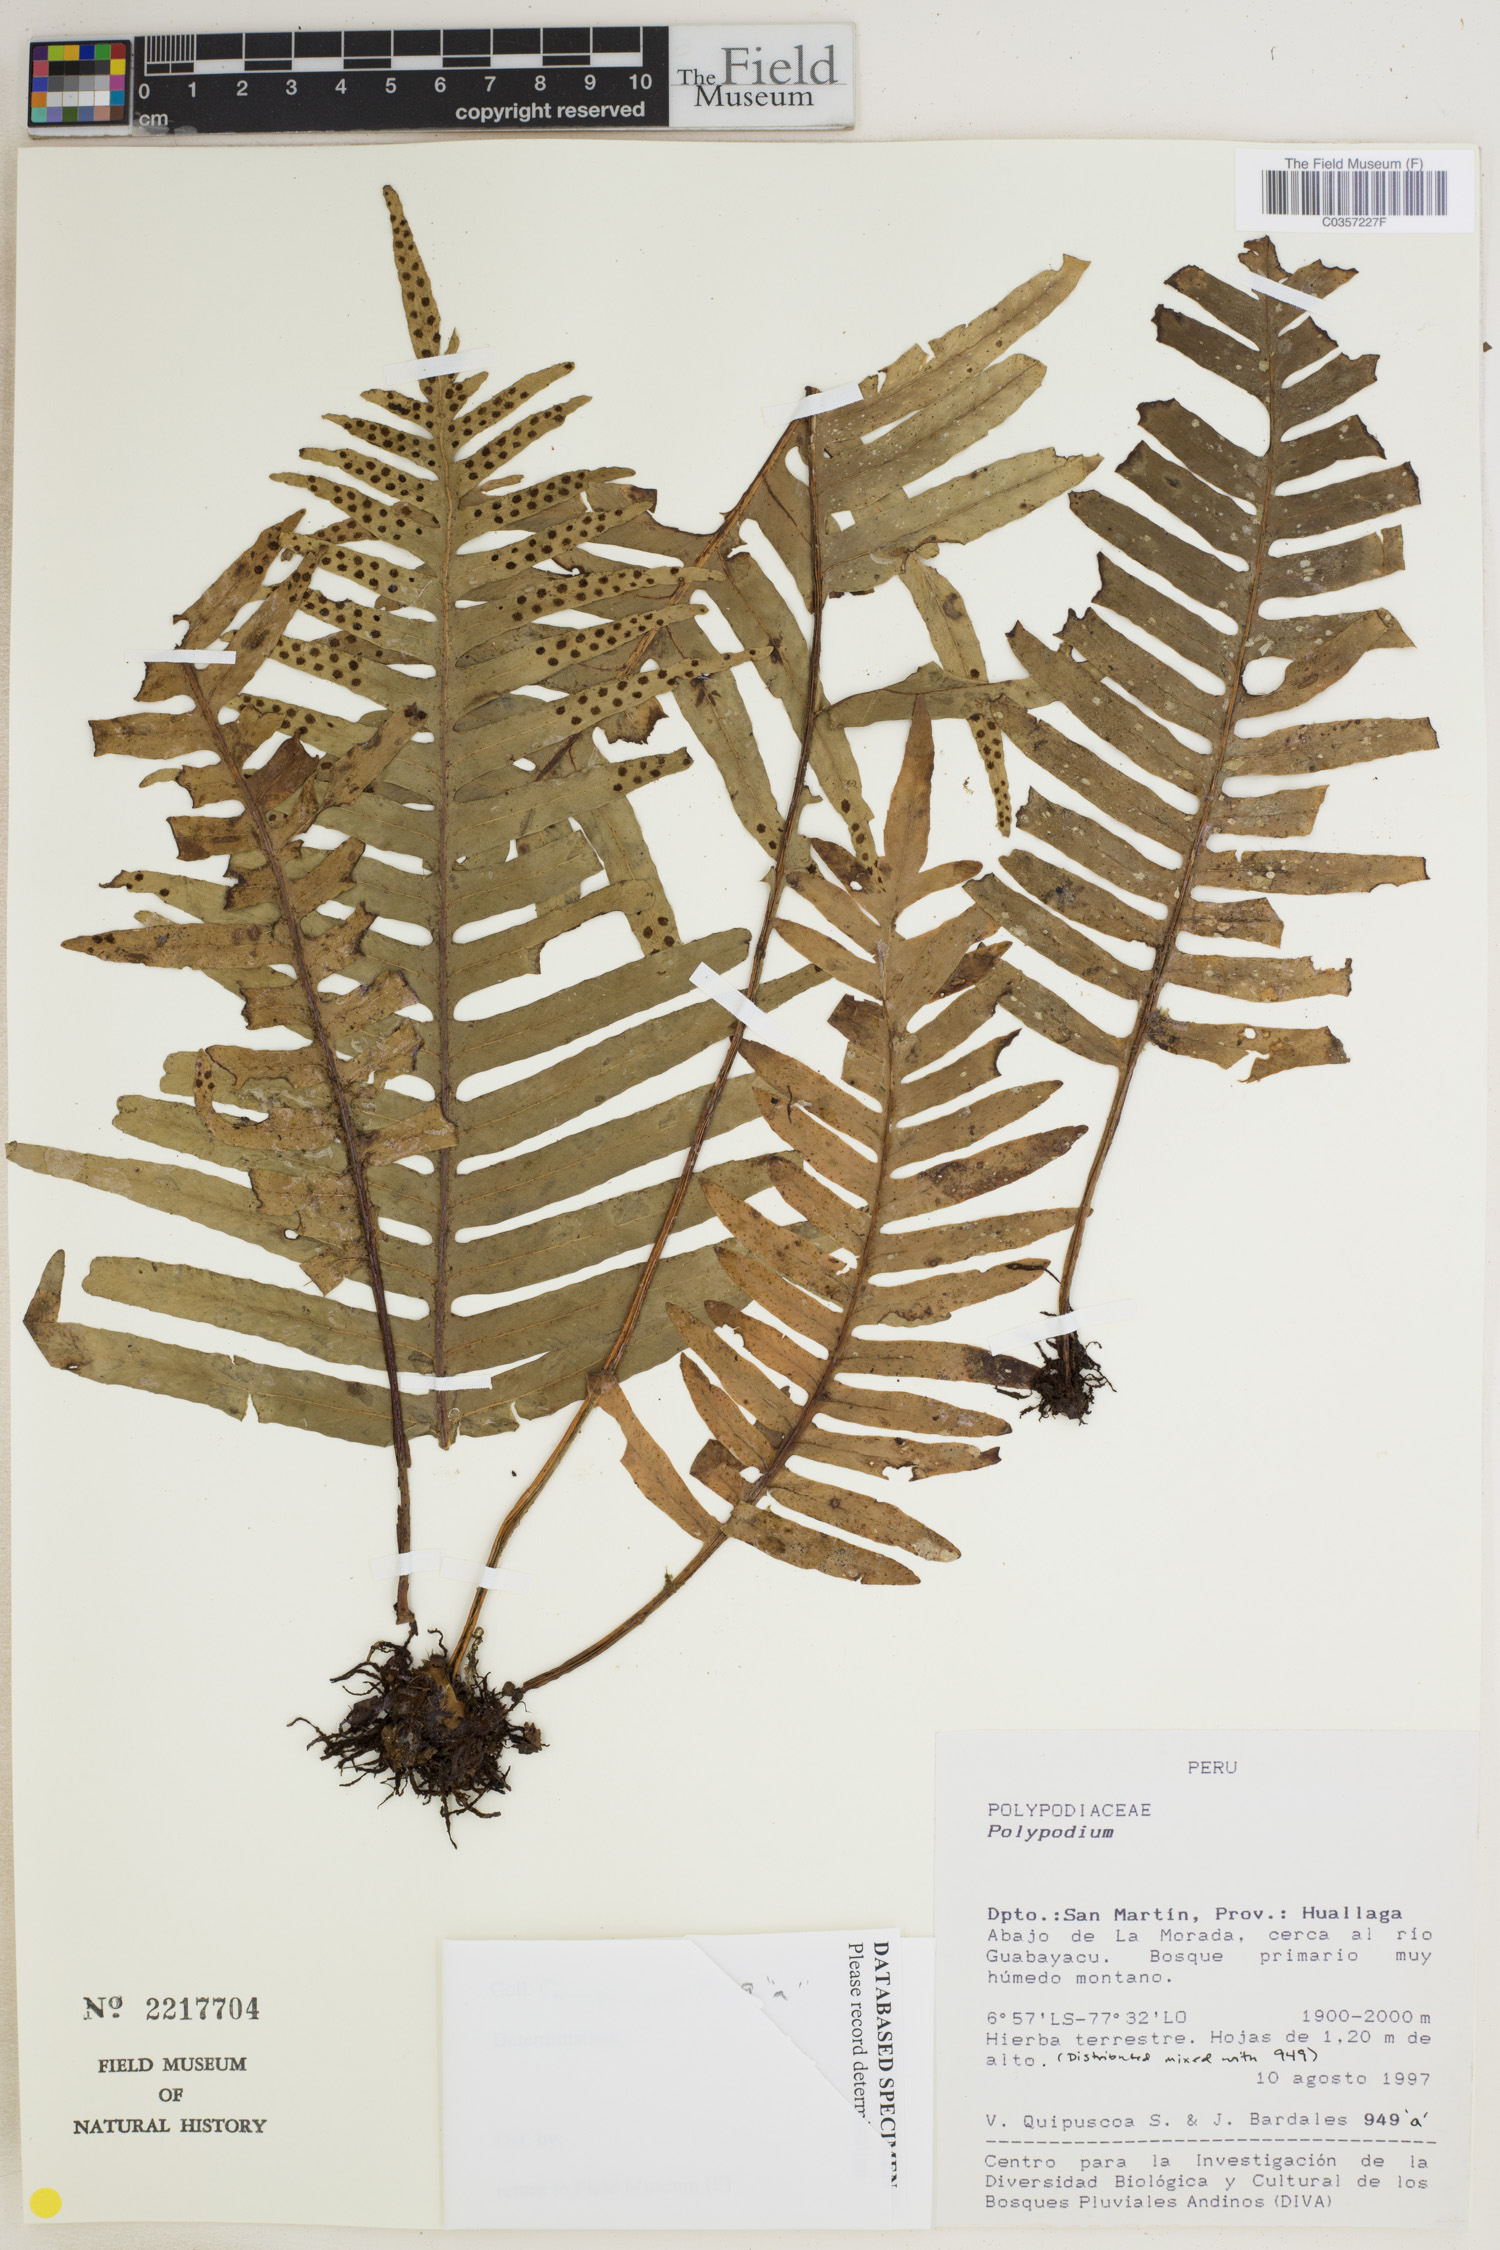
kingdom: Plantae
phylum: Tracheophyta
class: Polypodiopsida
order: Polypodiales
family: Polypodiaceae
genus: Polypodium
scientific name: Polypodium
